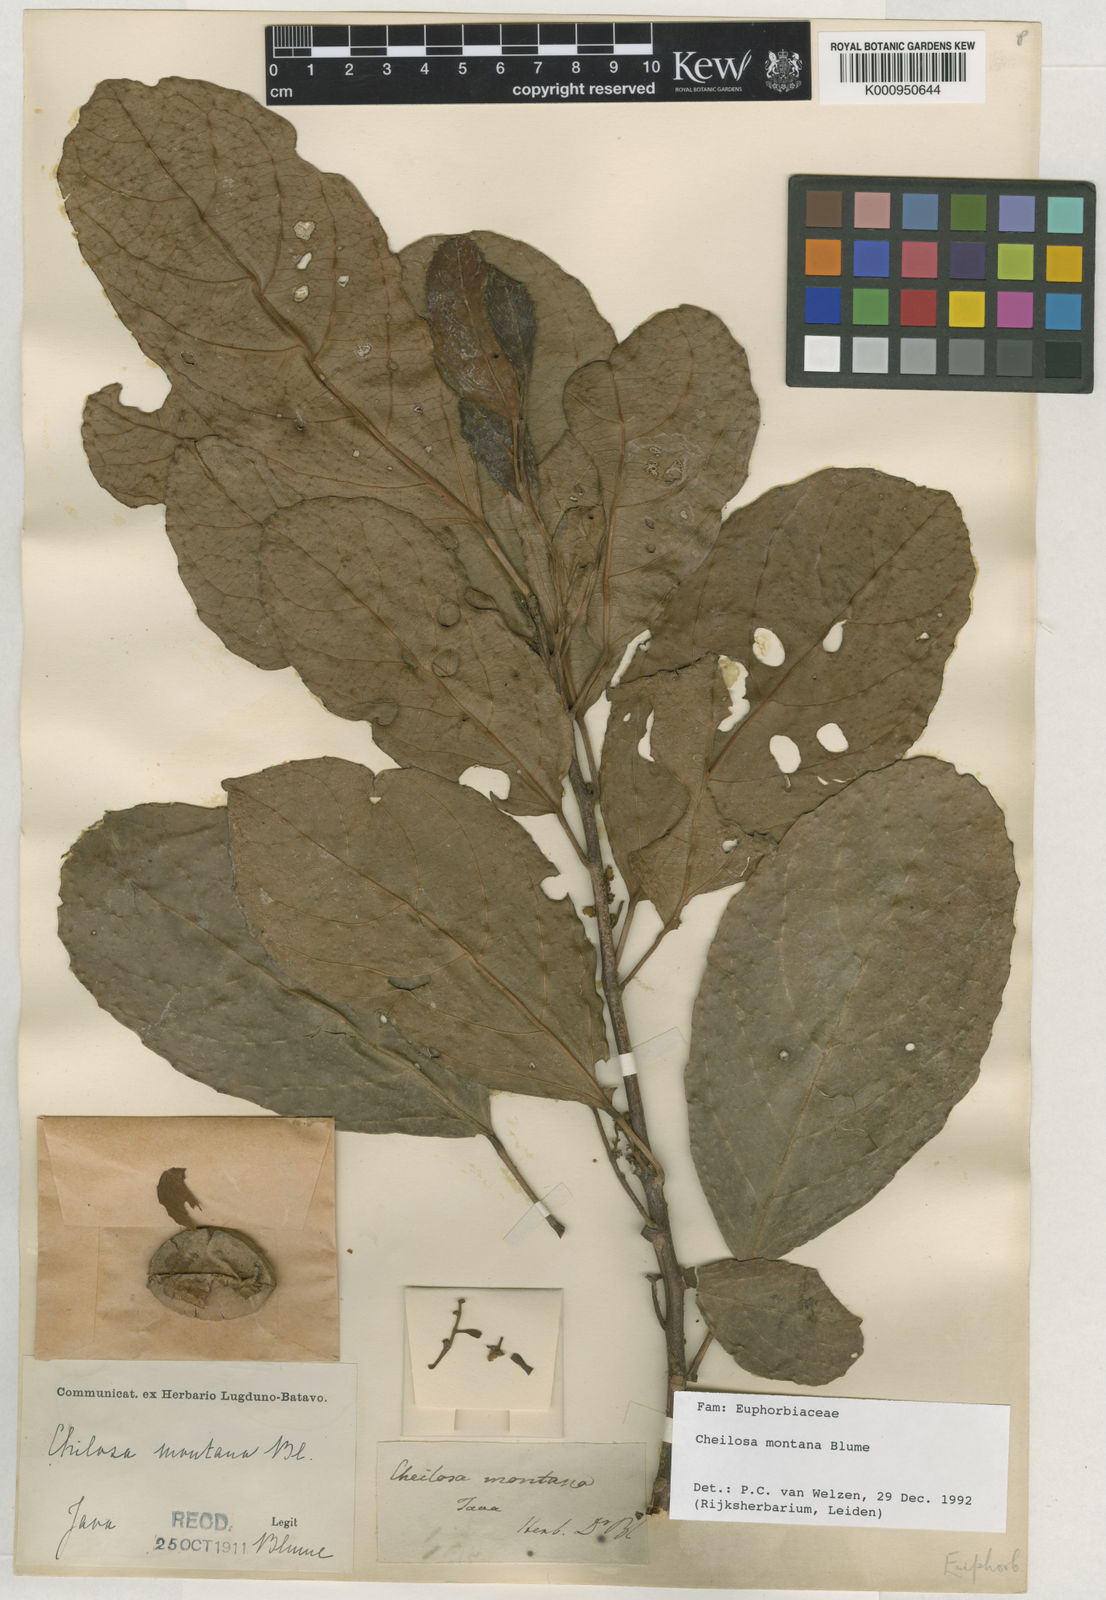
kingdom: Plantae
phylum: Tracheophyta
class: Magnoliopsida
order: Malpighiales
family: Euphorbiaceae
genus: Cheilosa
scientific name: Cheilosa montana
